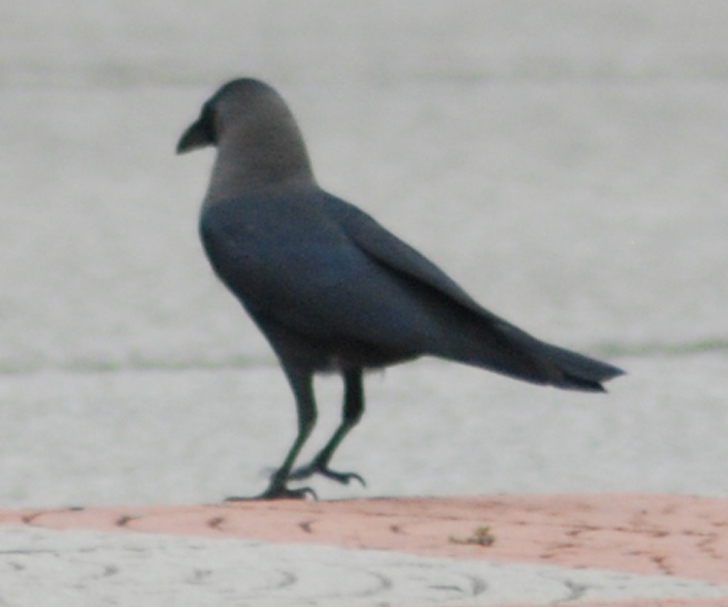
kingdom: Animalia
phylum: Chordata
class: Aves
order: Passeriformes
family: Corvidae
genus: Corvus
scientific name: Corvus splendens
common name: House crow
